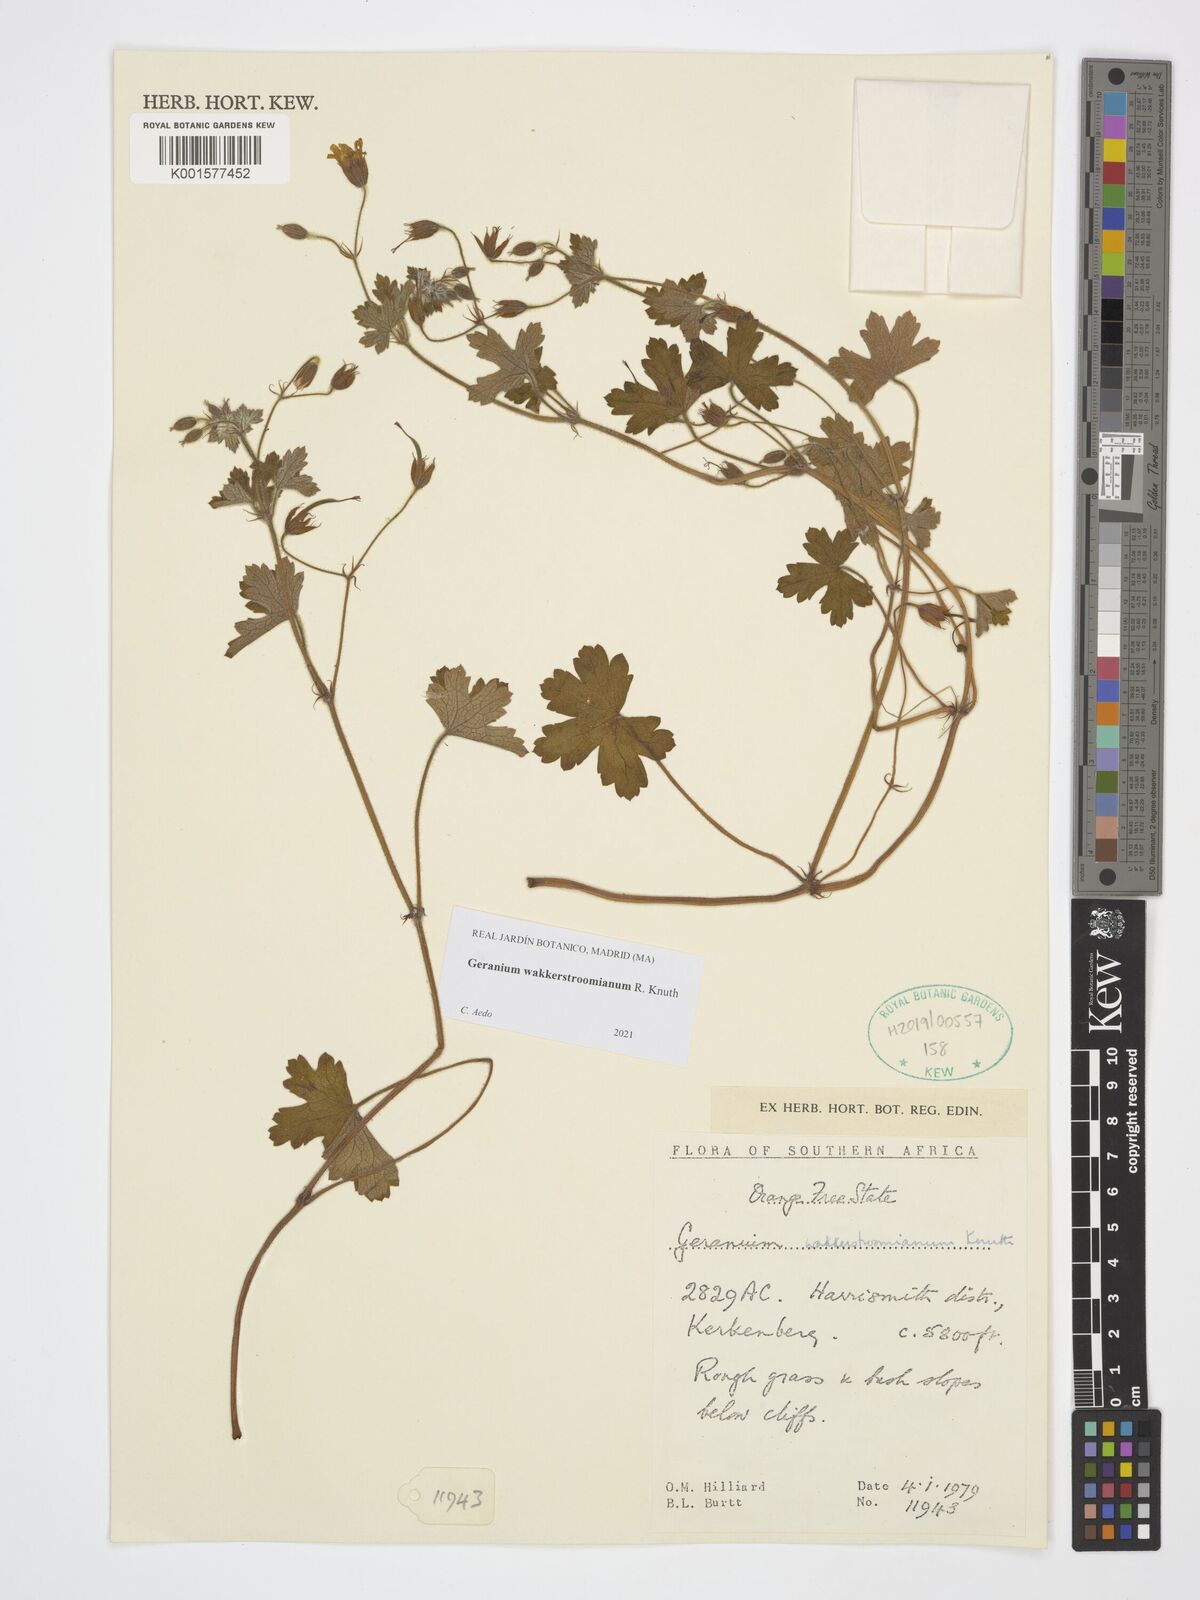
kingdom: Plantae
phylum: Tracheophyta
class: Magnoliopsida
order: Geraniales
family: Geraniaceae
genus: Geranium
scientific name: Geranium wakkerstroomianum
